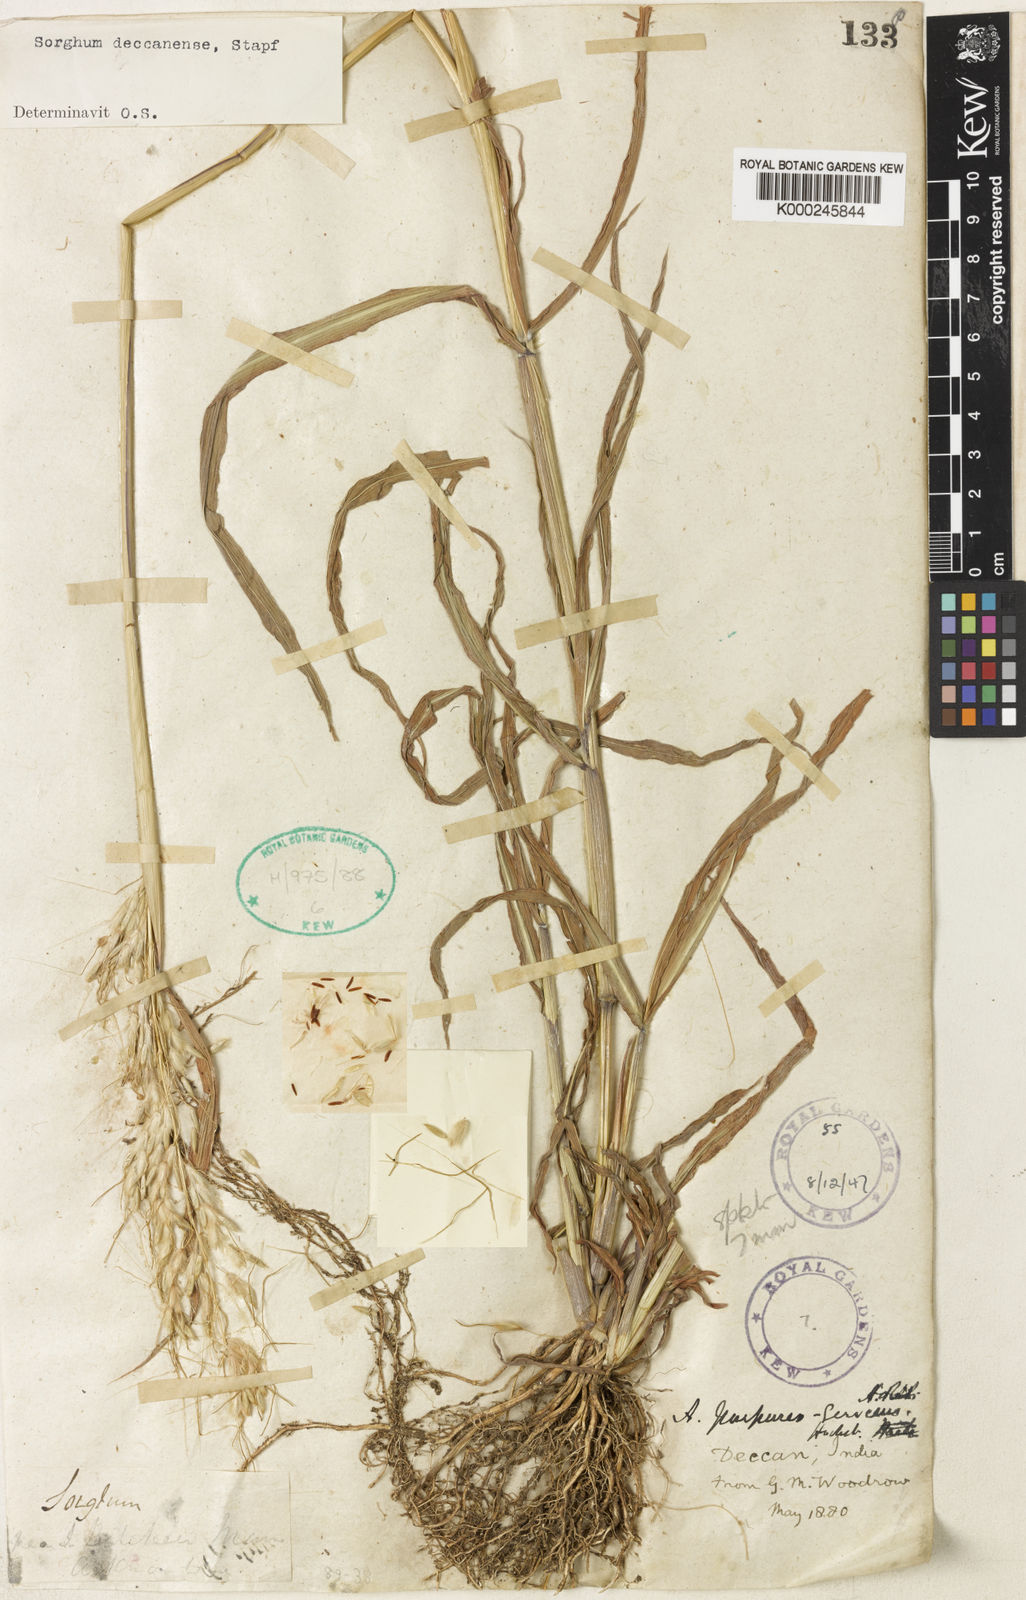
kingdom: Plantae
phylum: Tracheophyta
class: Liliopsida
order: Poales
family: Poaceae
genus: Sarga
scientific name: Sarga purpureosericea
